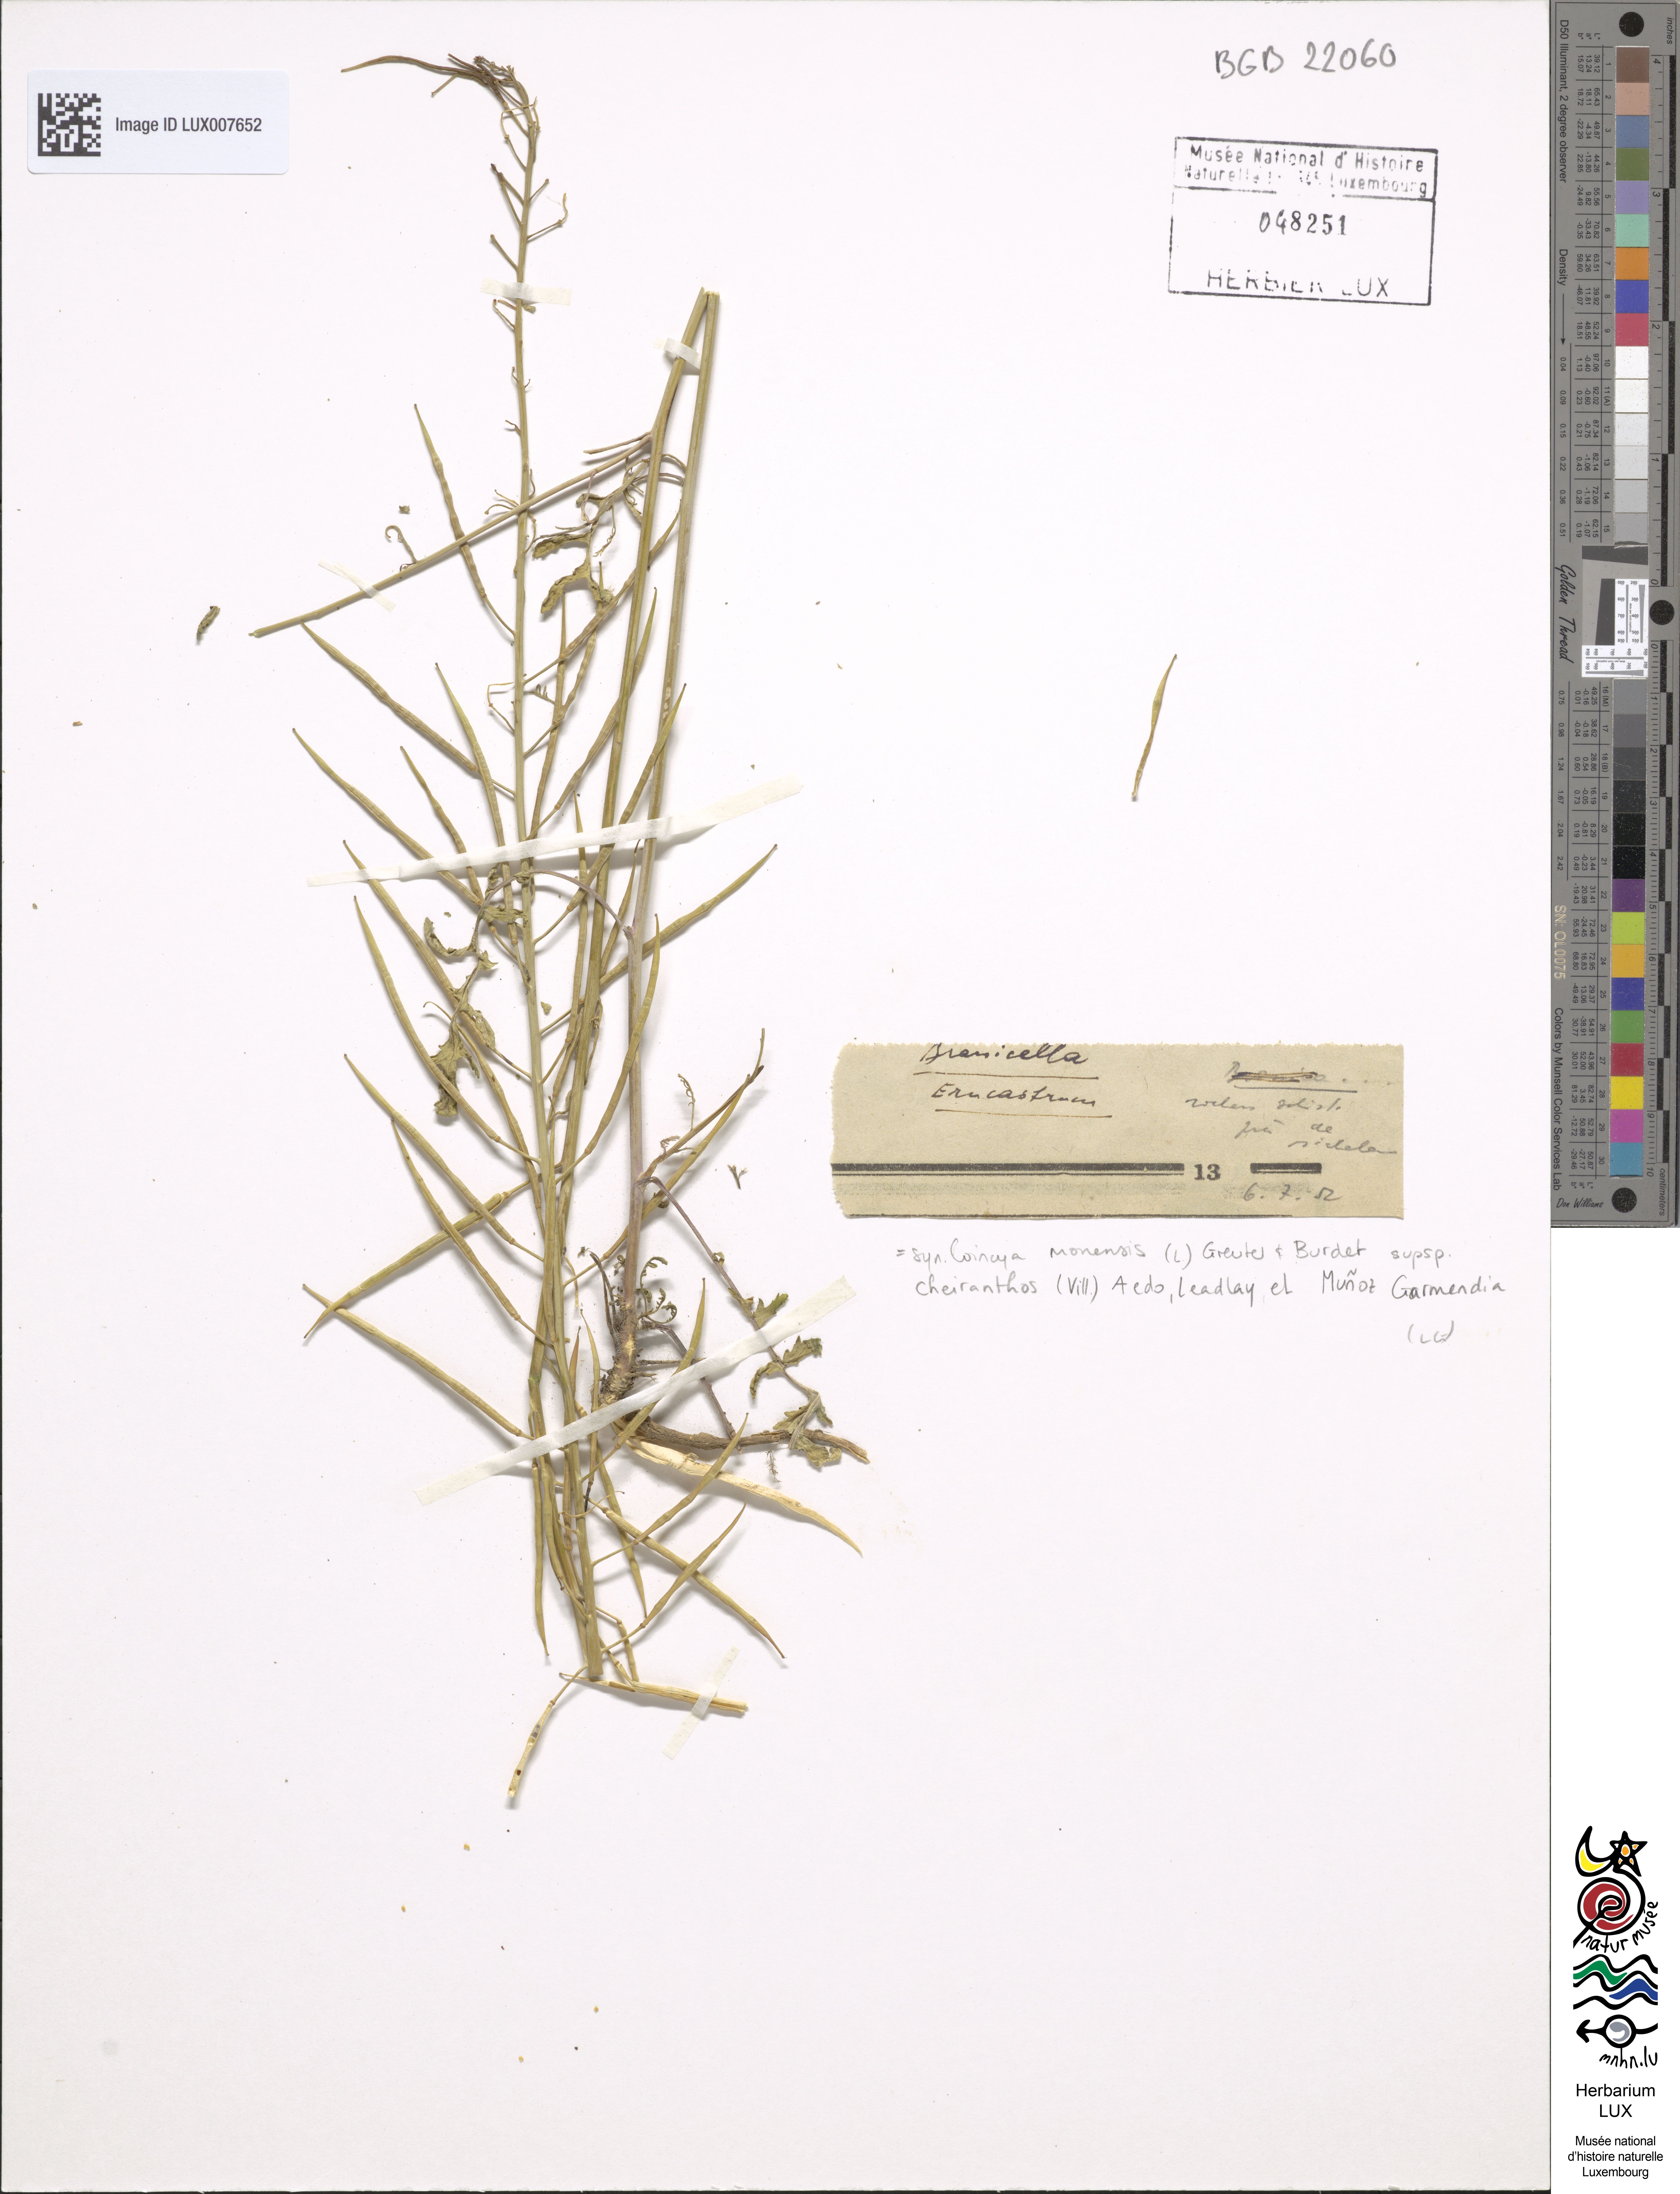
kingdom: Plantae
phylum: Tracheophyta
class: Magnoliopsida
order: Brassicales
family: Brassicaceae
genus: Erucastrum
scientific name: Erucastrum nasturtiifolium
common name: Watercress-leaf rocket
